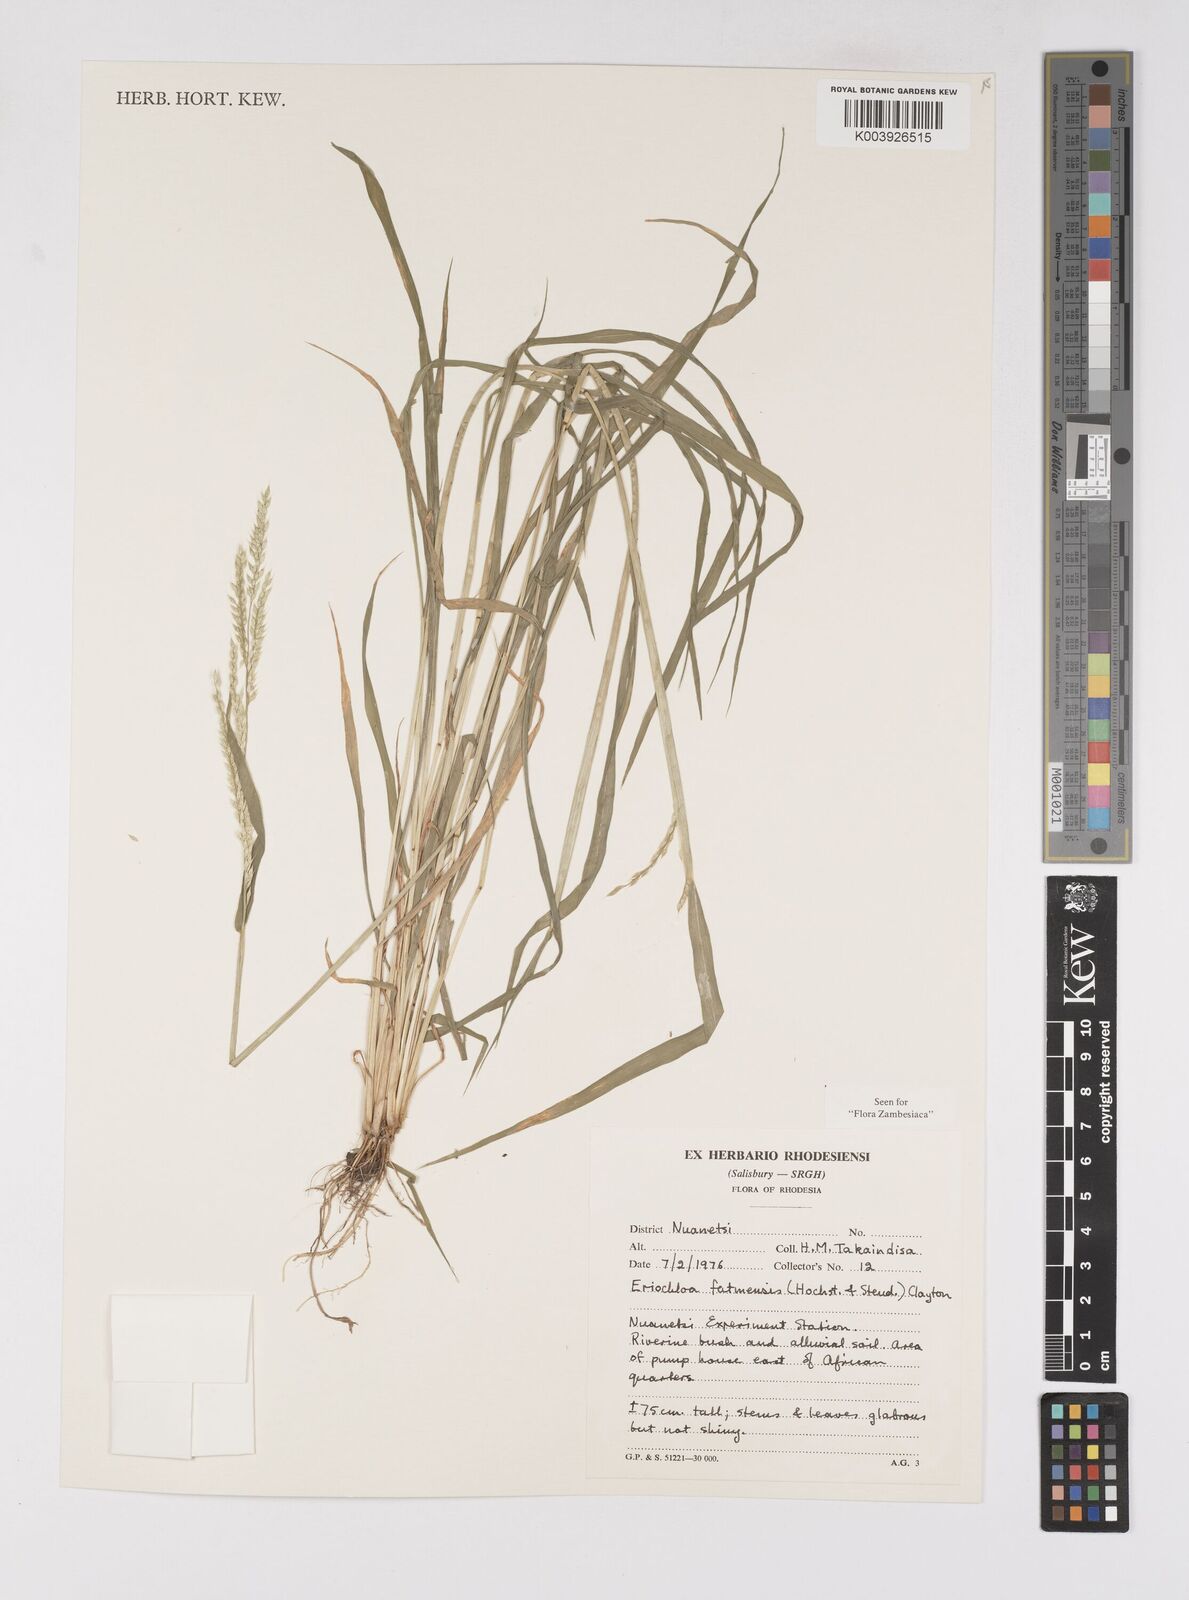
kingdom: Plantae
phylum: Tracheophyta
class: Liliopsida
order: Poales
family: Poaceae
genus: Eriochloa
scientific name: Eriochloa barbatus
